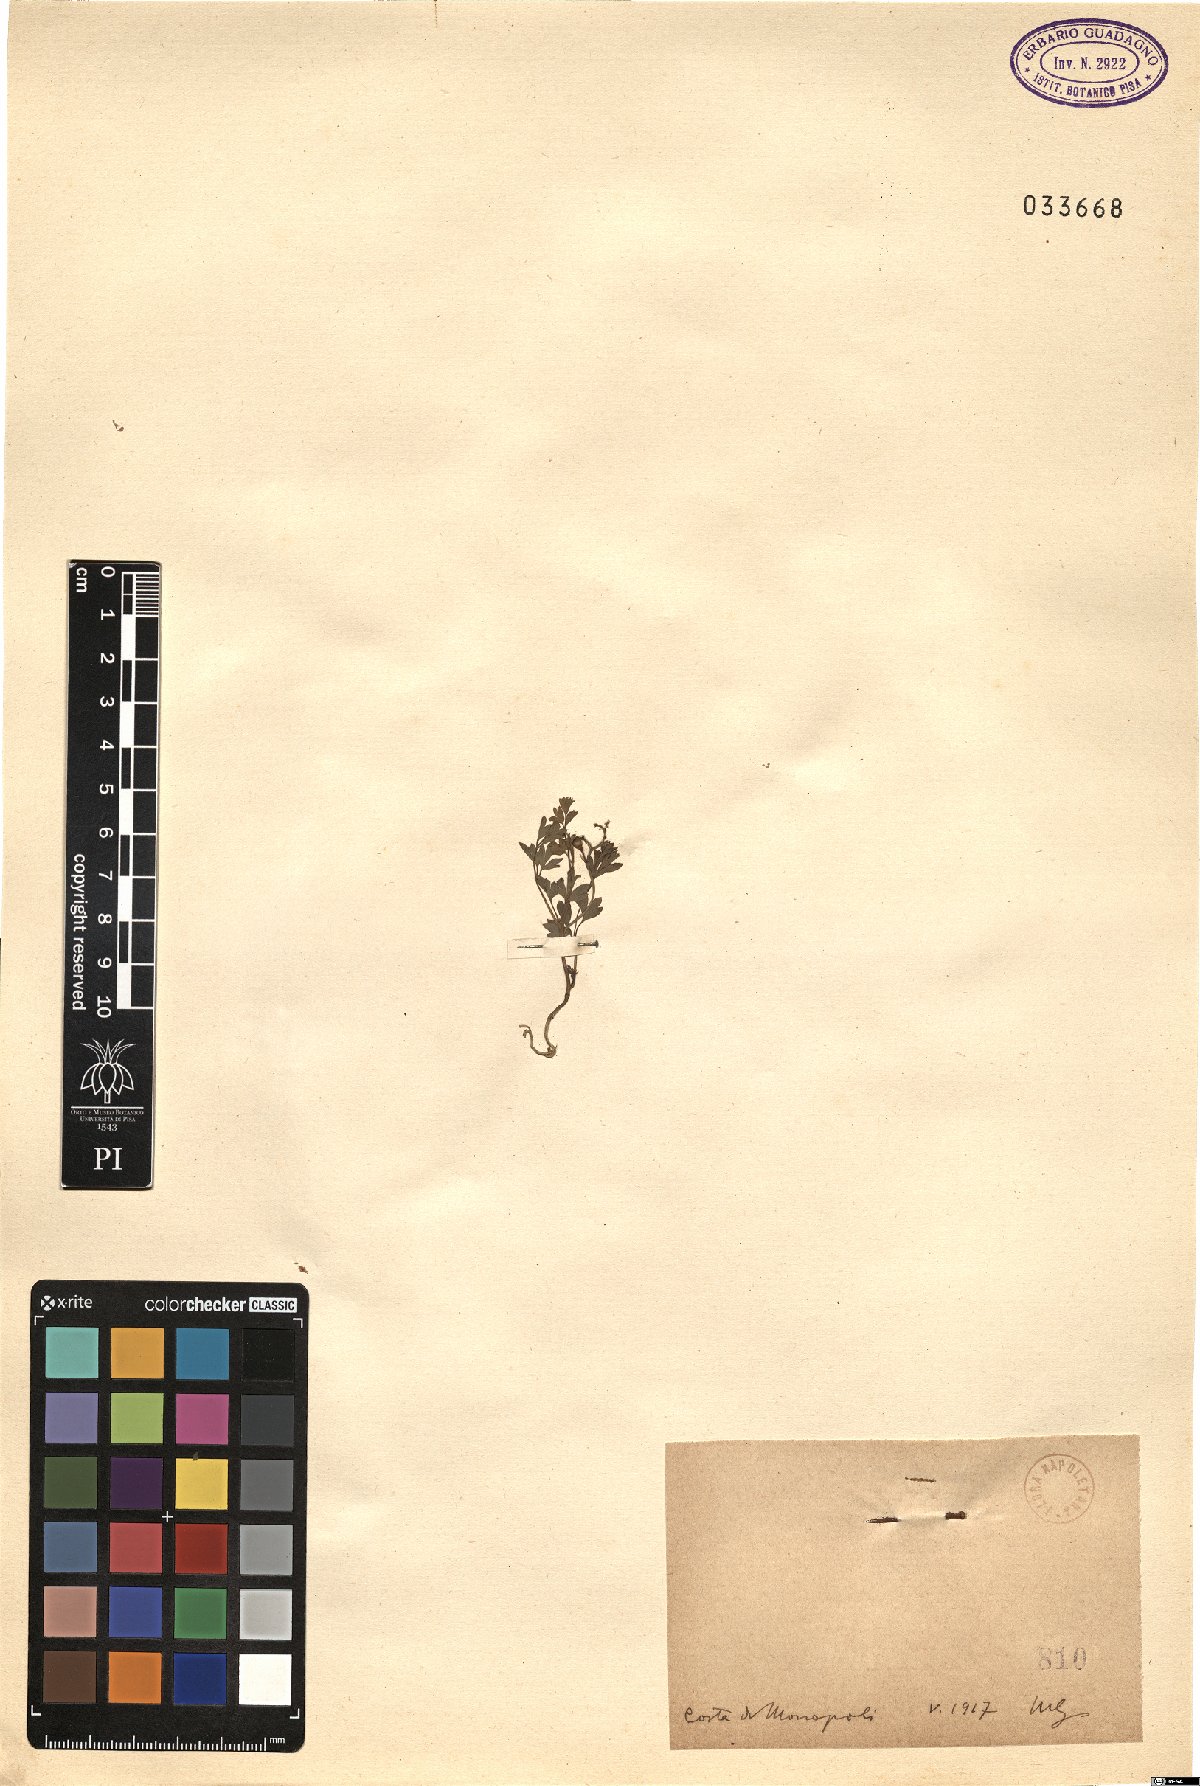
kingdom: Plantae
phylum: Tracheophyta
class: Magnoliopsida
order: Ranunculales
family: Papaveraceae
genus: Fumaria
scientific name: Fumaria
